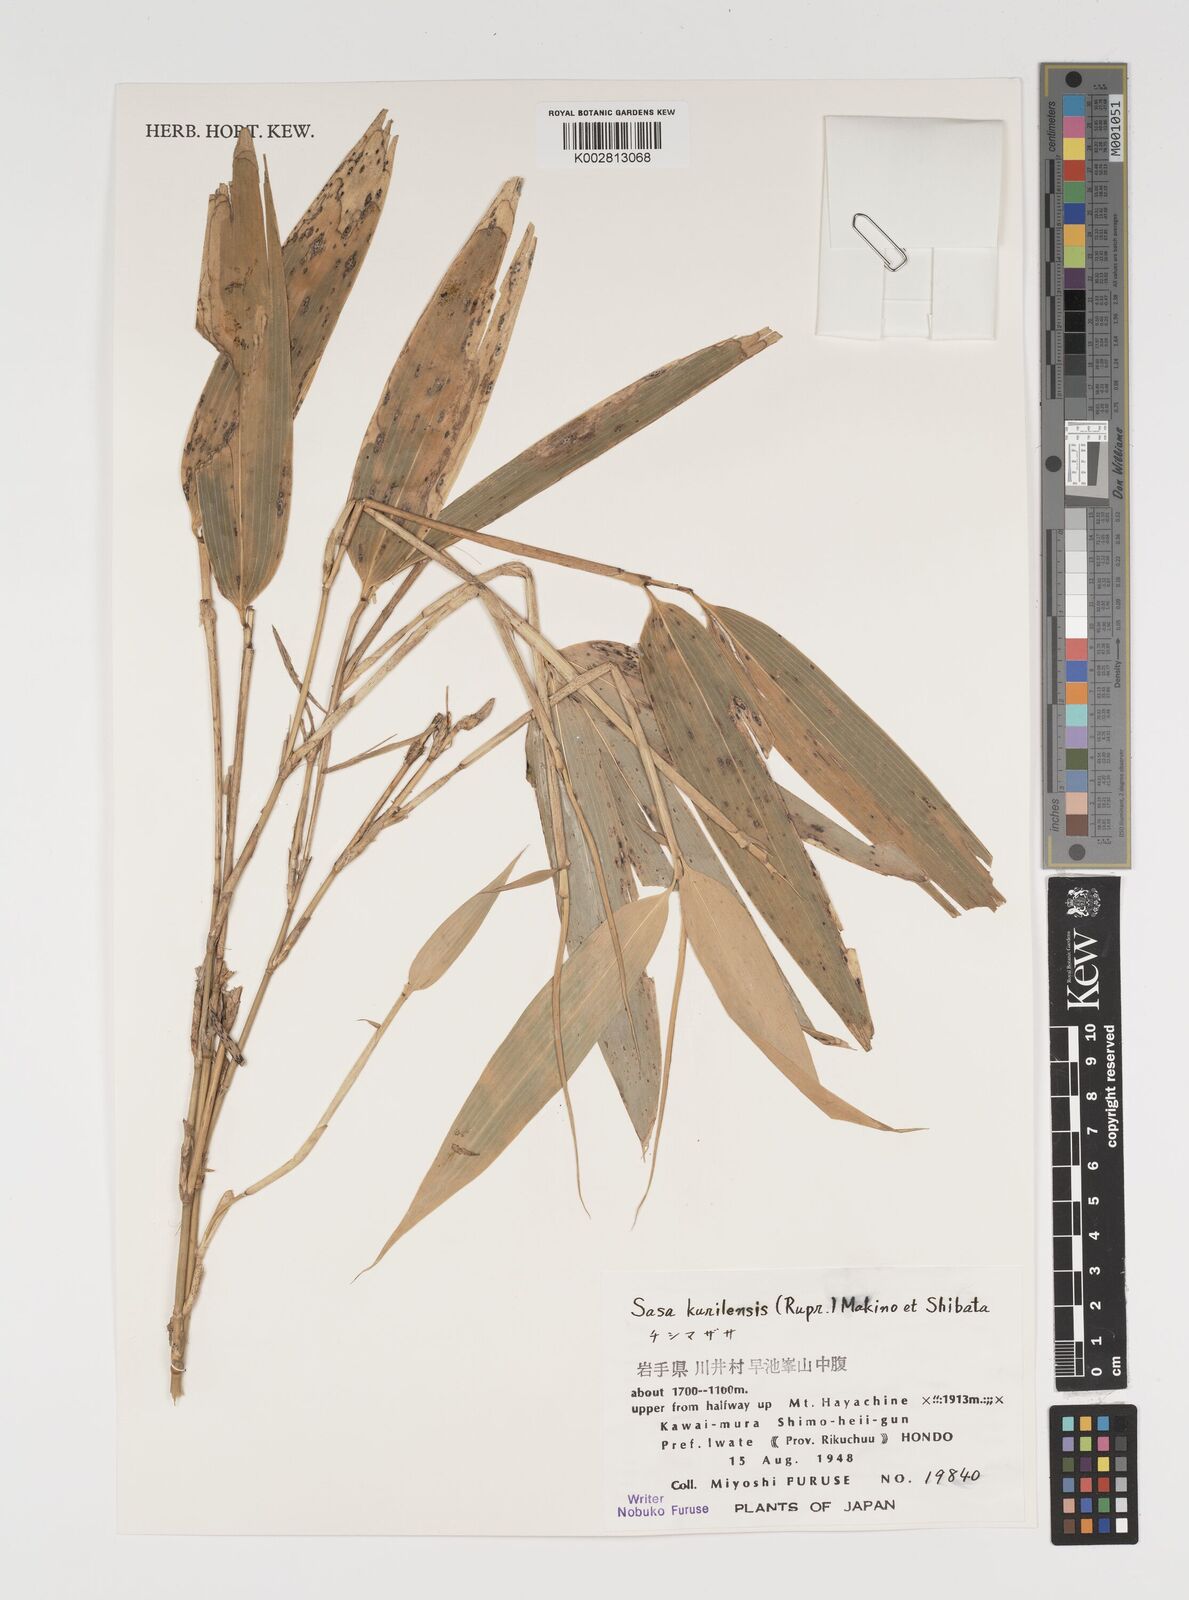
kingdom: Plantae
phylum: Tracheophyta
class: Liliopsida
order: Poales
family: Poaceae
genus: Sasa
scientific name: Sasa kurilensis
